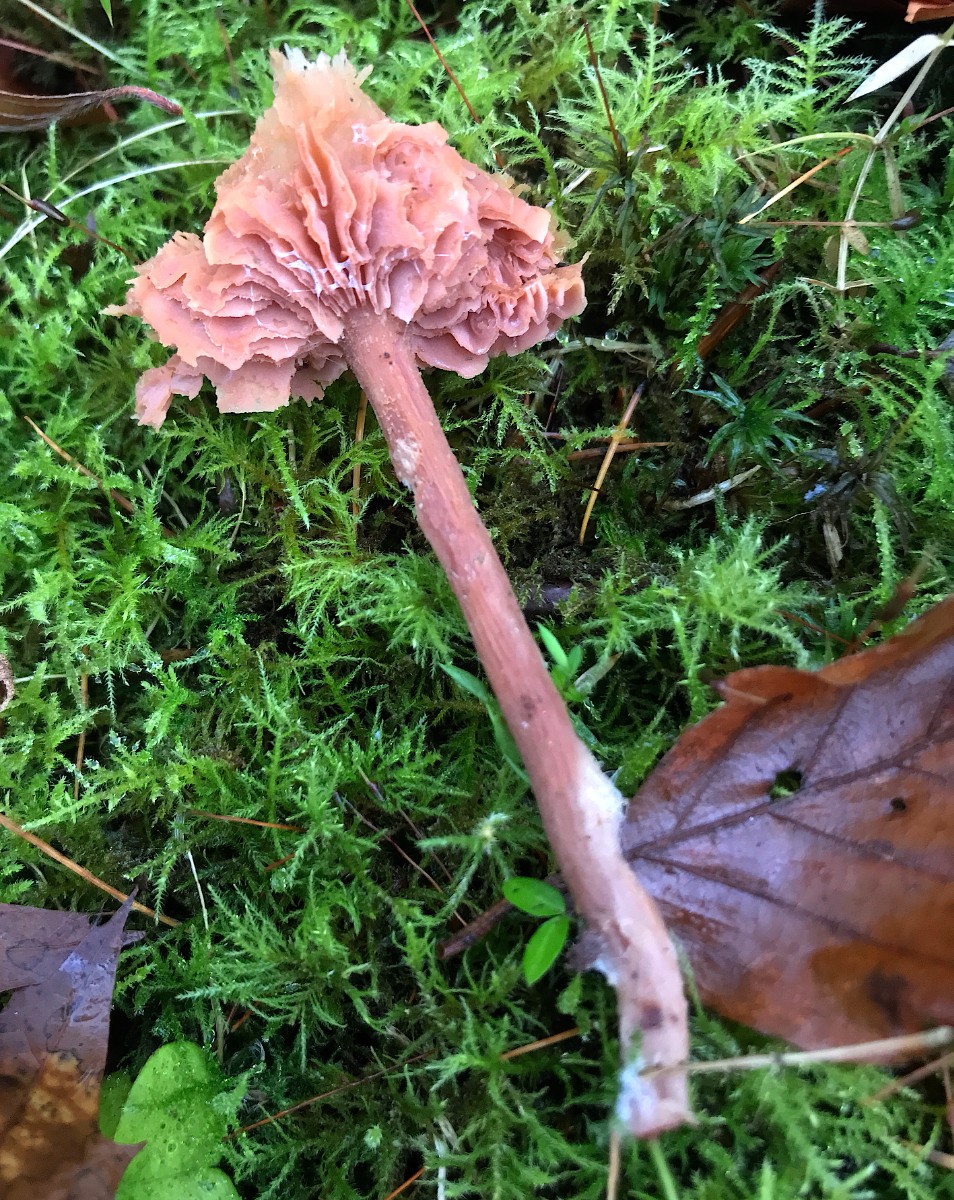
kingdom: Fungi
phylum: Basidiomycota
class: Agaricomycetes
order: Agaricales
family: Hydnangiaceae
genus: Laccaria
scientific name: Laccaria laccata
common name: rød ametysthat
